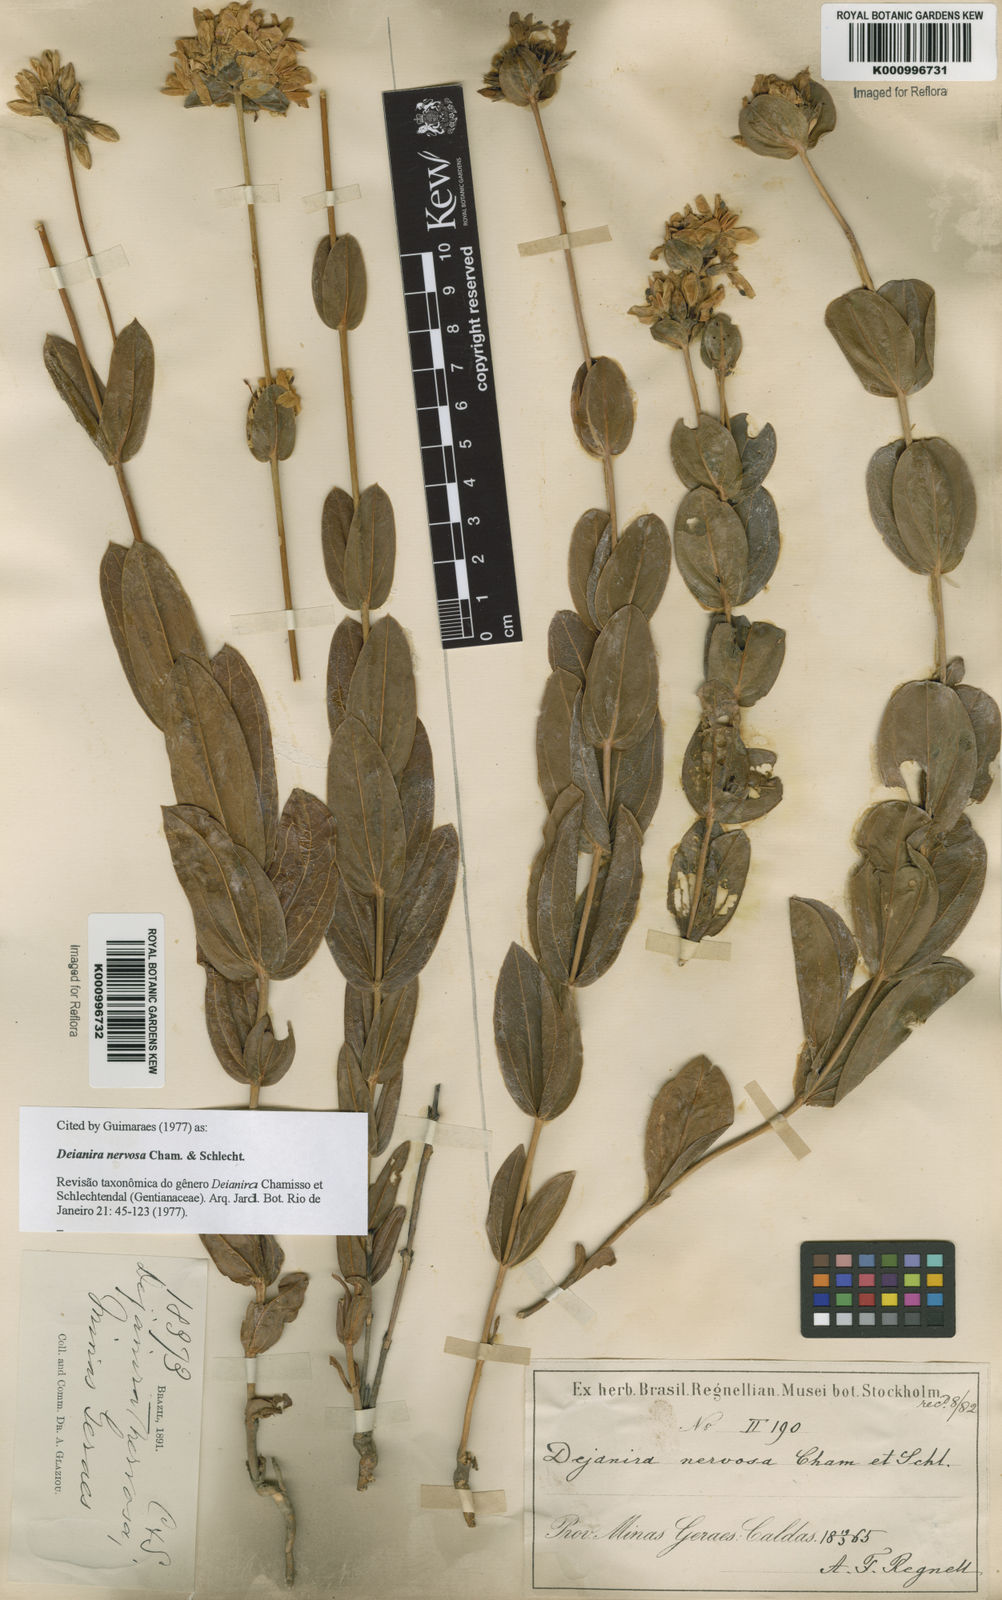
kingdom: Plantae
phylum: Tracheophyta
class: Magnoliopsida
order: Gentianales
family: Gentianaceae
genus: Deianira
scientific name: Deianira nervosa
